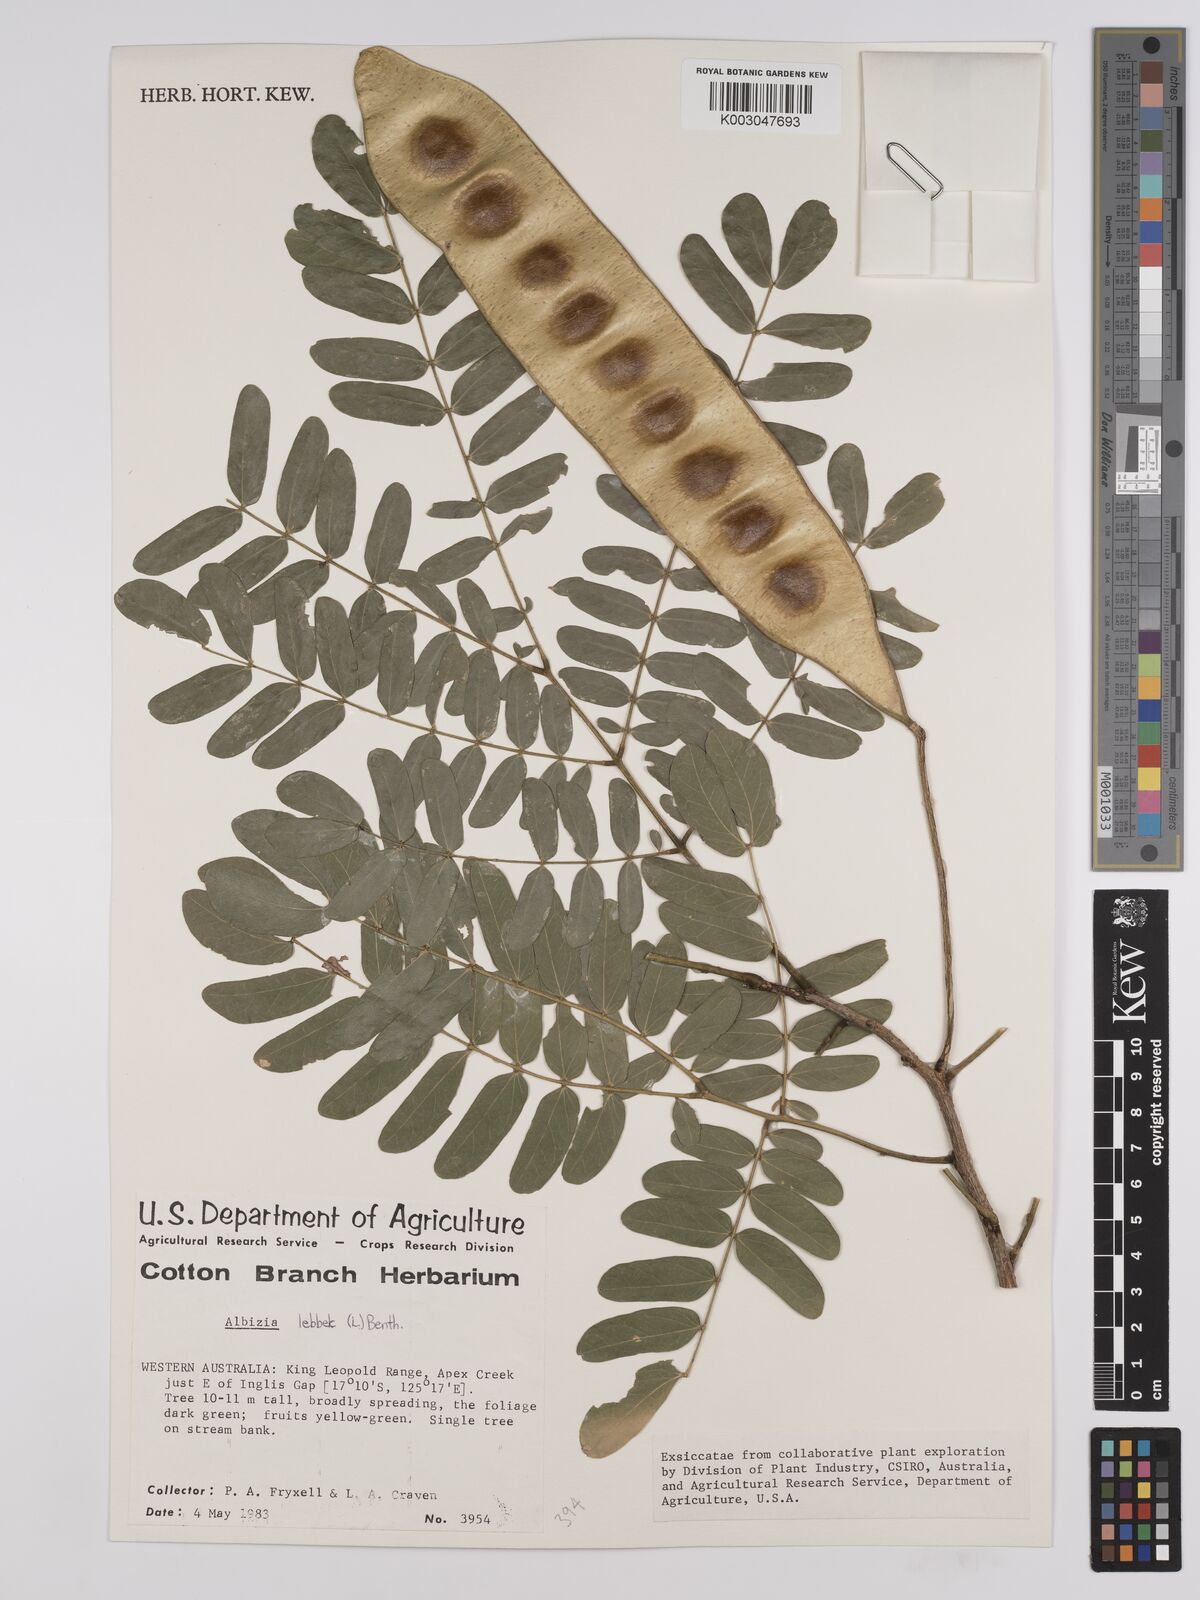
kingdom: Plantae
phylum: Tracheophyta
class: Magnoliopsida
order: Fabales
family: Fabaceae
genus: Albizia
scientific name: Albizia lebbeck
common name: Woman's tongue
